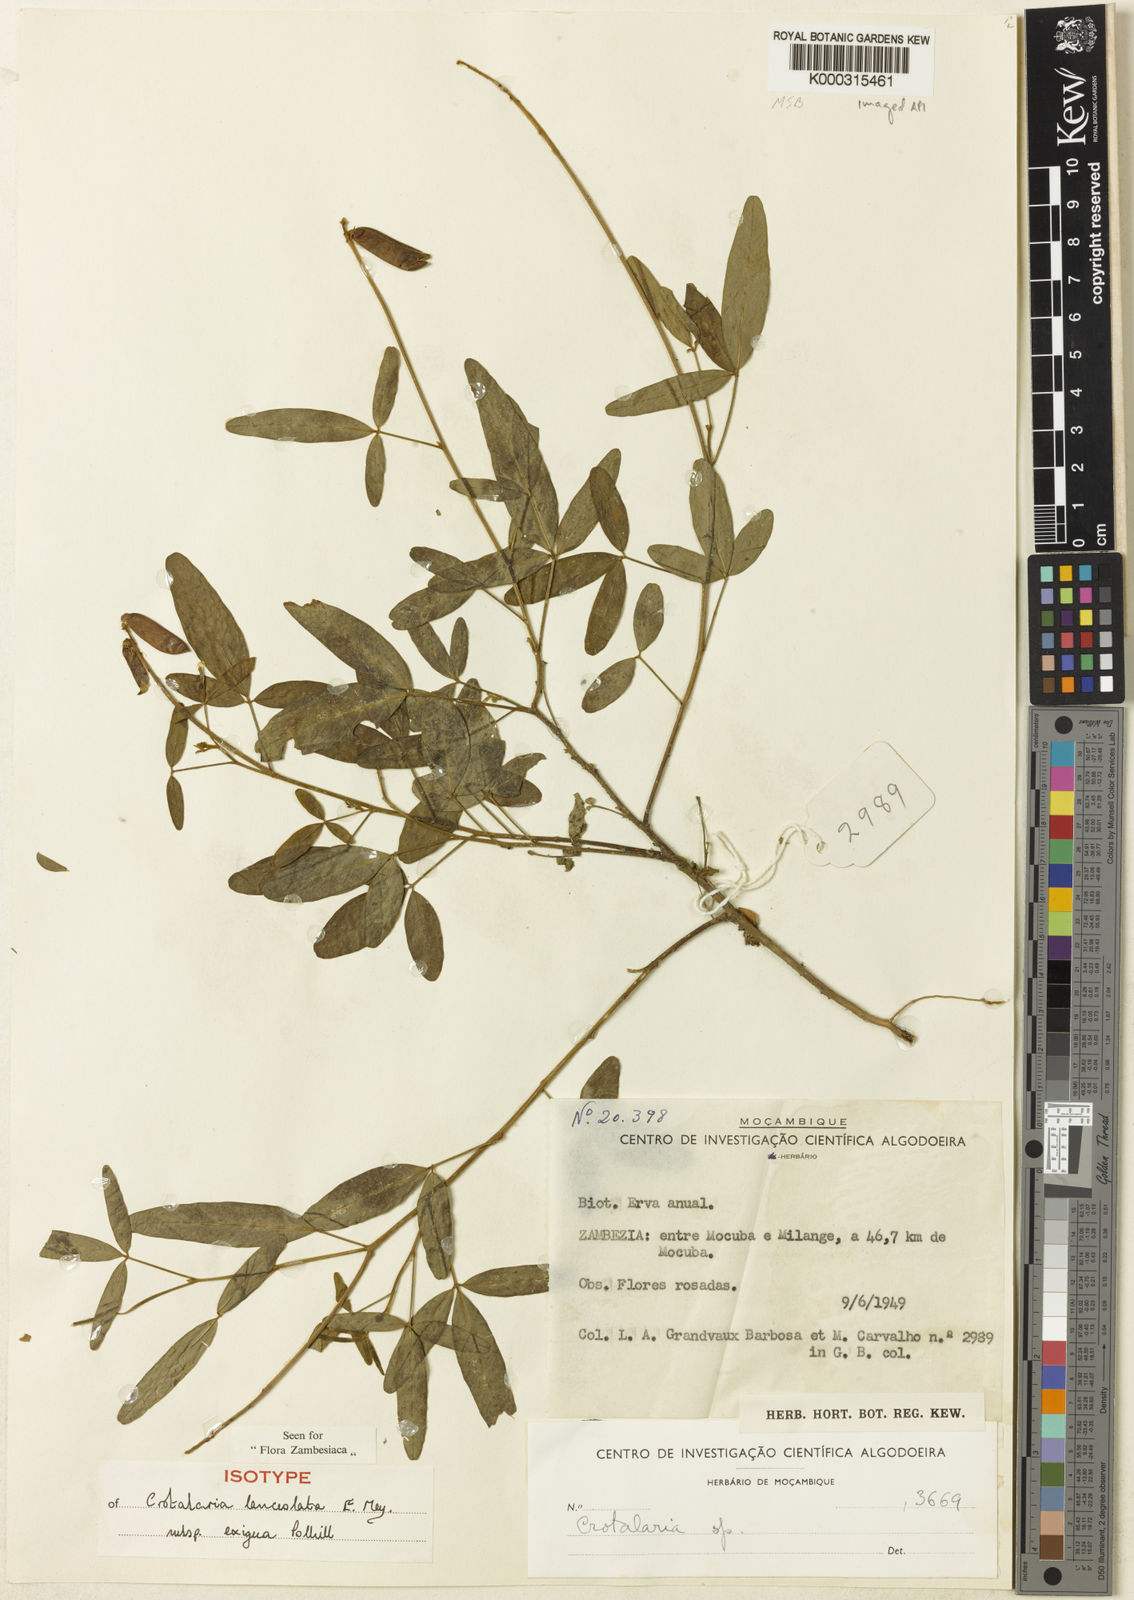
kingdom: Plantae
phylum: Tracheophyta
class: Magnoliopsida
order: Fabales
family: Fabaceae
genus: Crotalaria
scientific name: Crotalaria lanceolata
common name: Lanceleaf rattlebox
